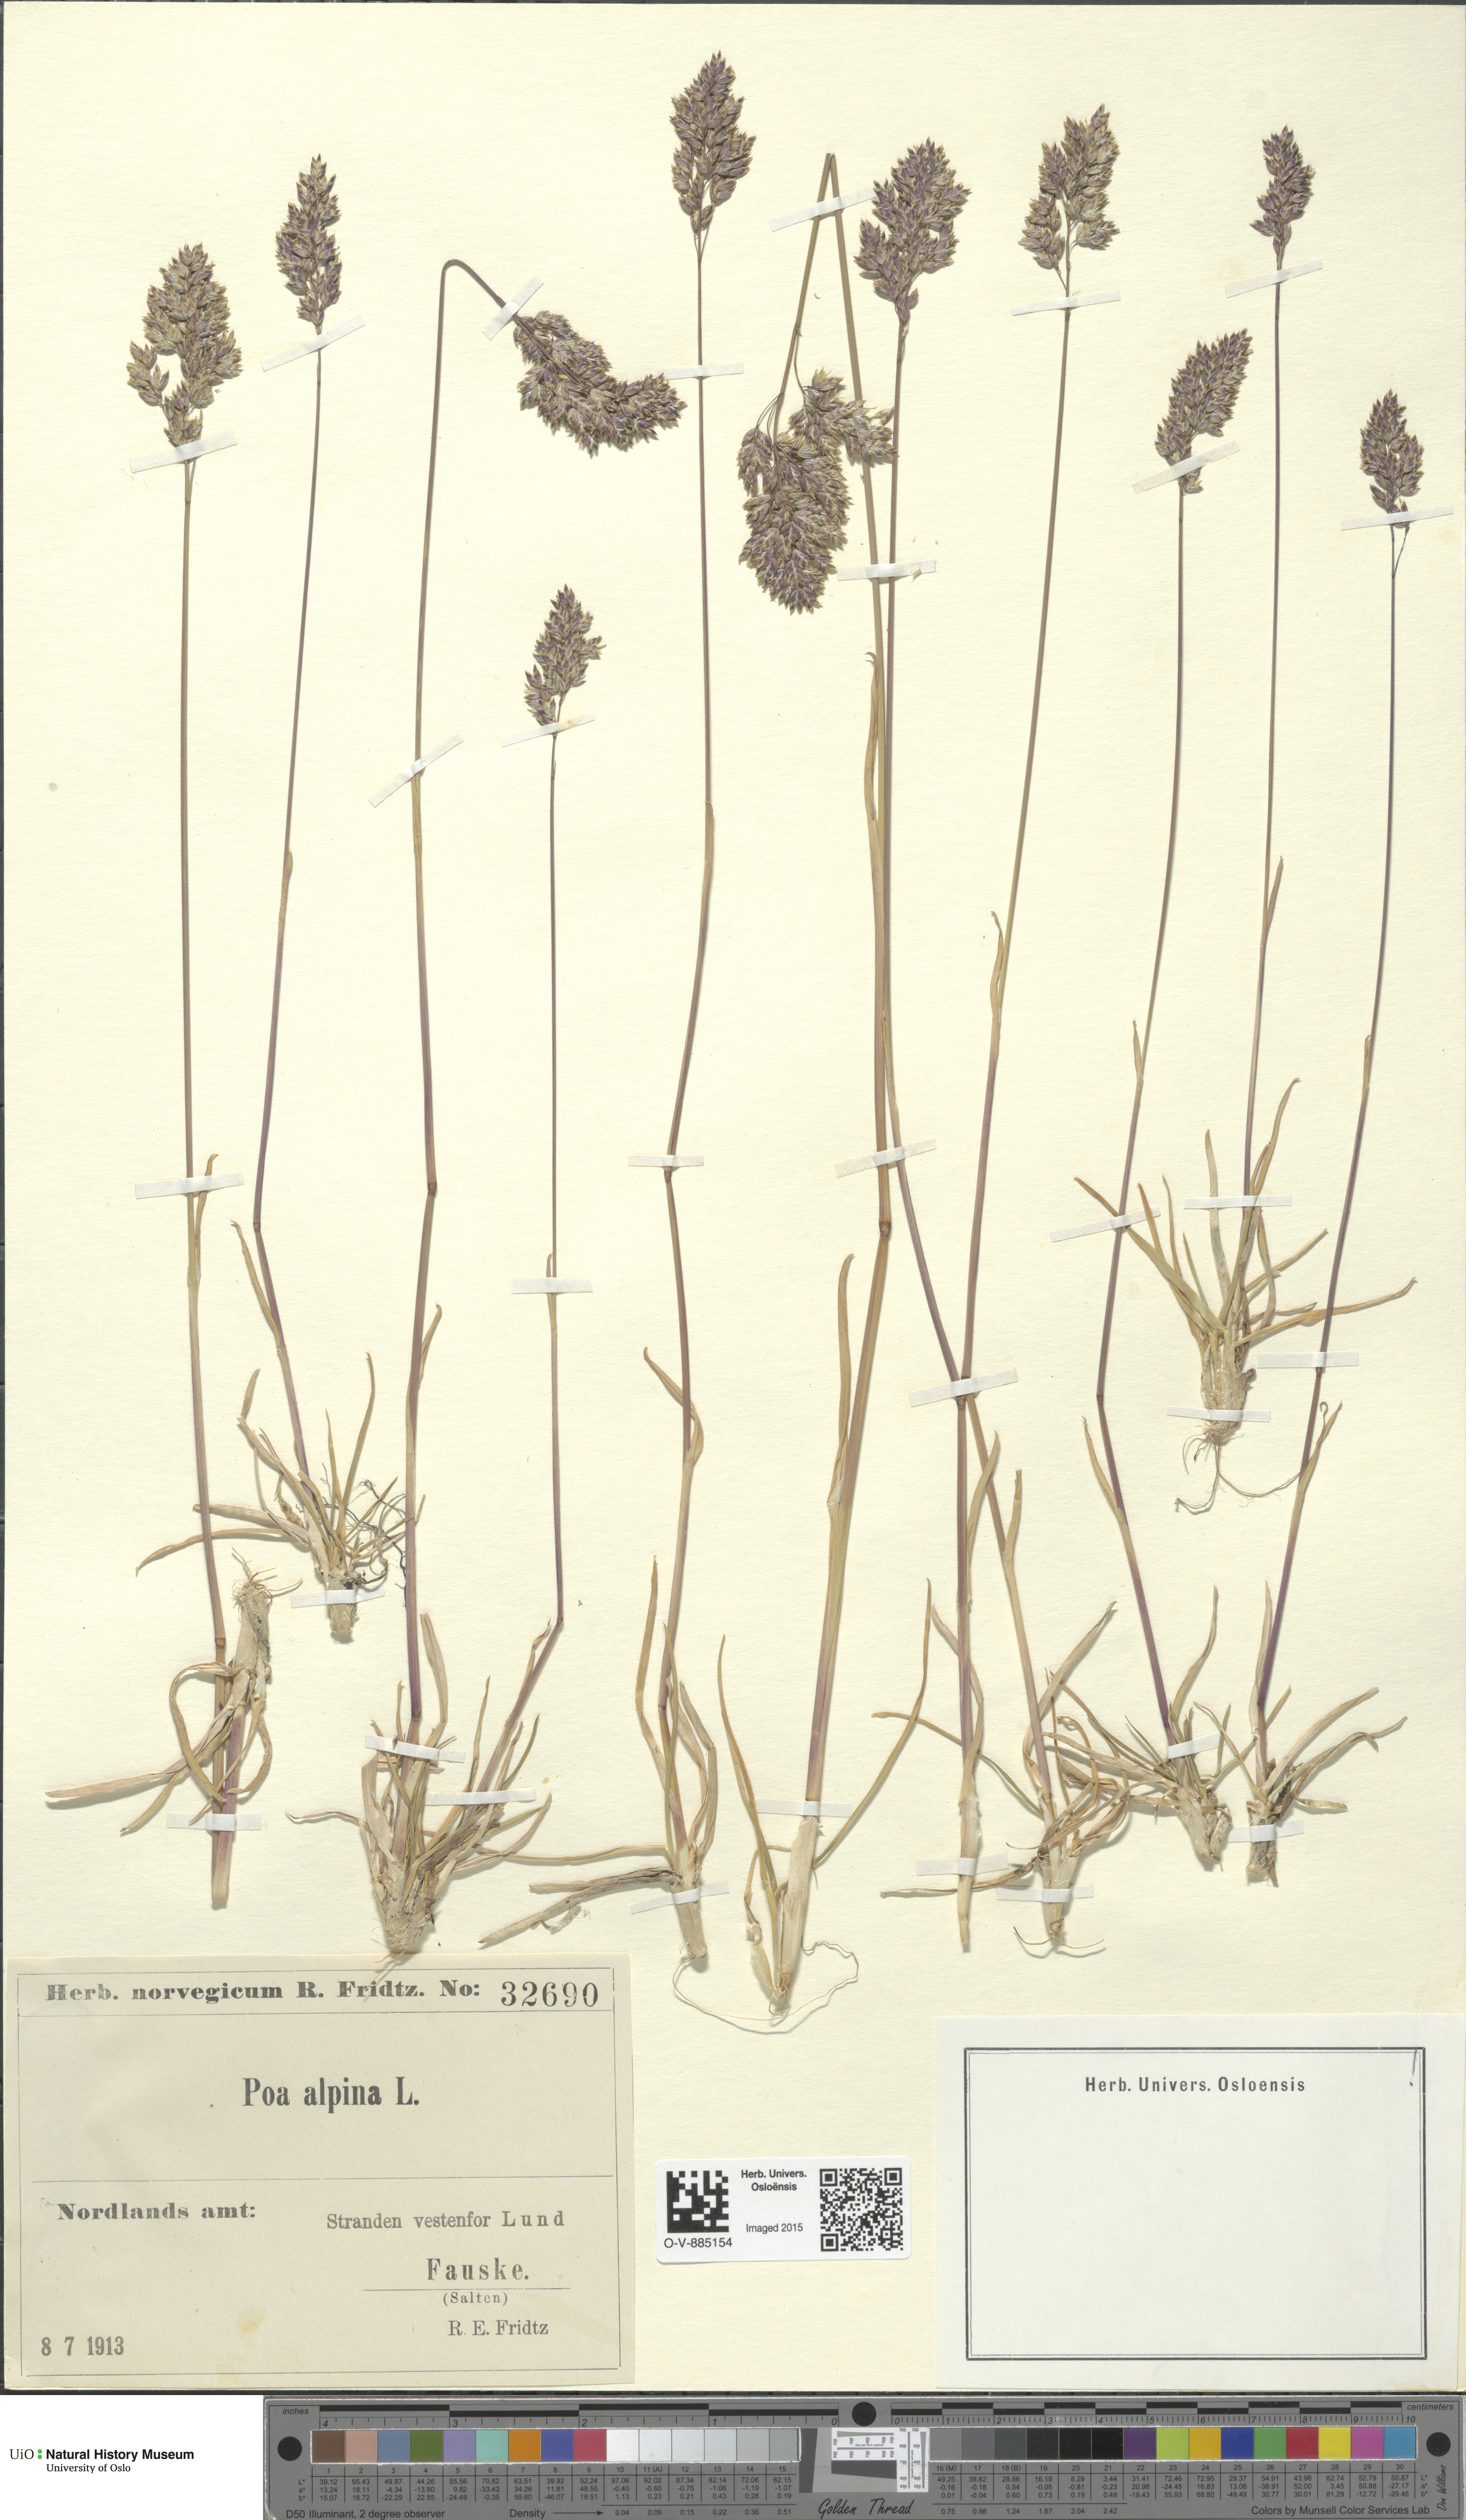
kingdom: Plantae
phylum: Tracheophyta
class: Liliopsida
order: Poales
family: Poaceae
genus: Poa
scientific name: Poa alpina
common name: Alpine bluegrass
